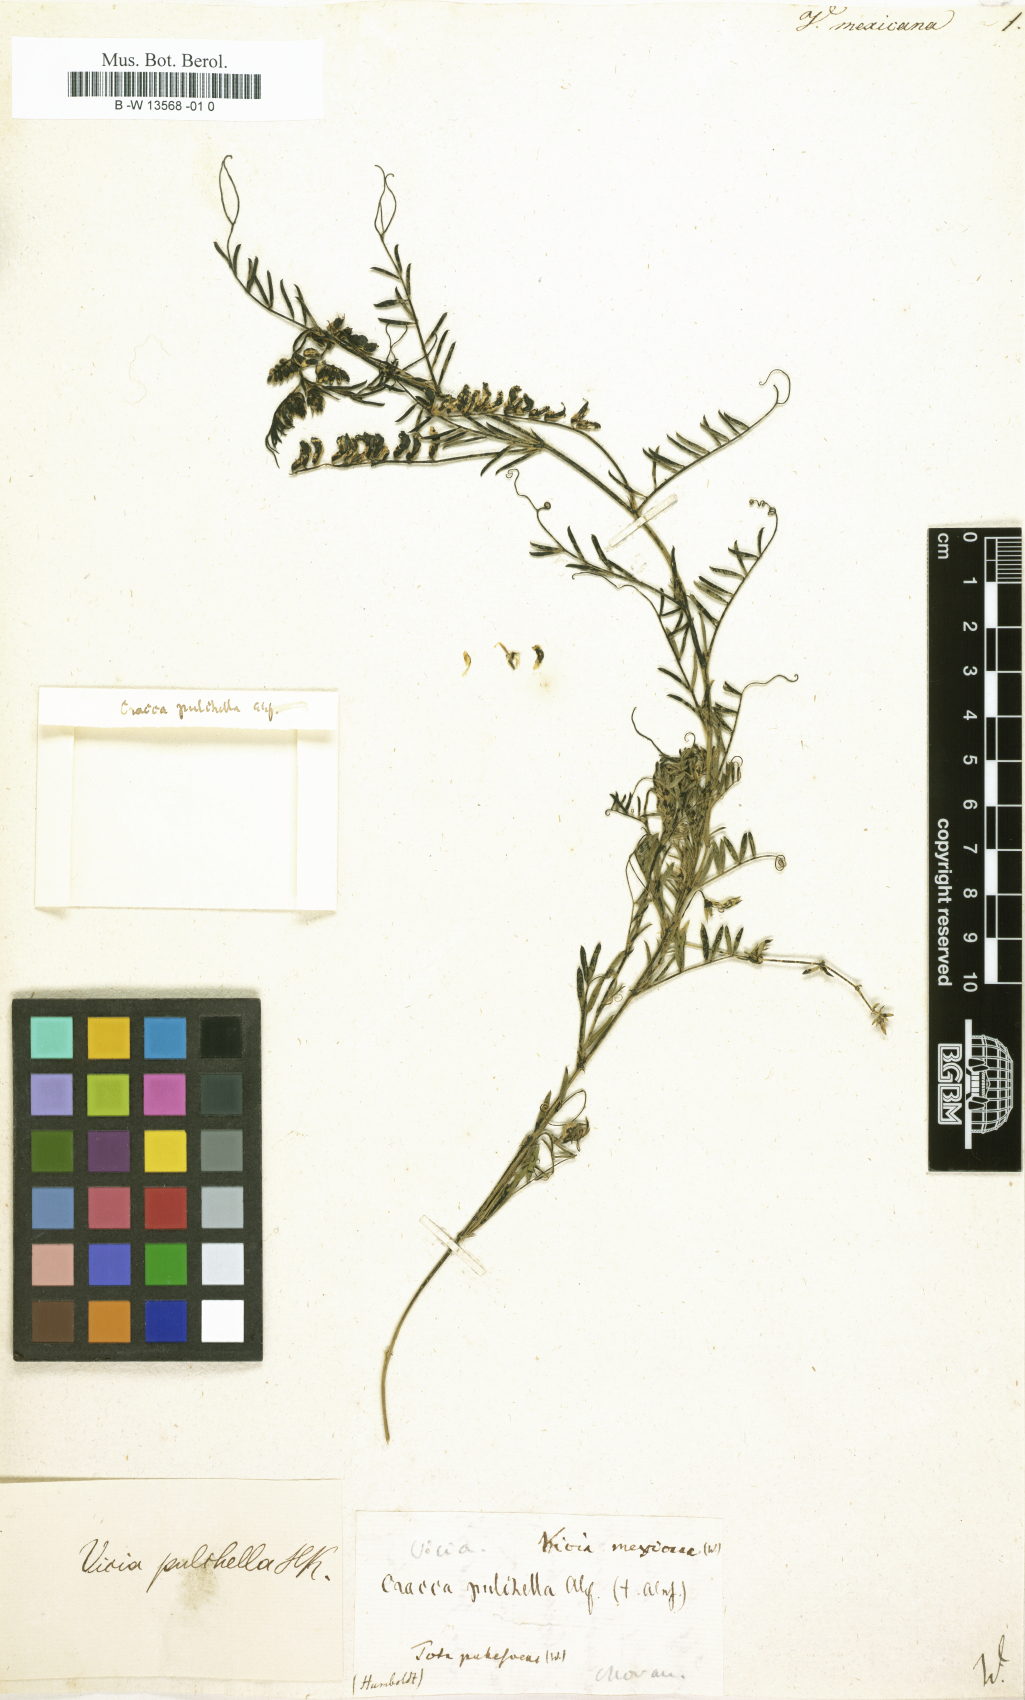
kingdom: Plantae
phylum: Tracheophyta
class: Magnoliopsida
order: Fabales
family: Fabaceae
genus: Vicia
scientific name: Vicia sessei
